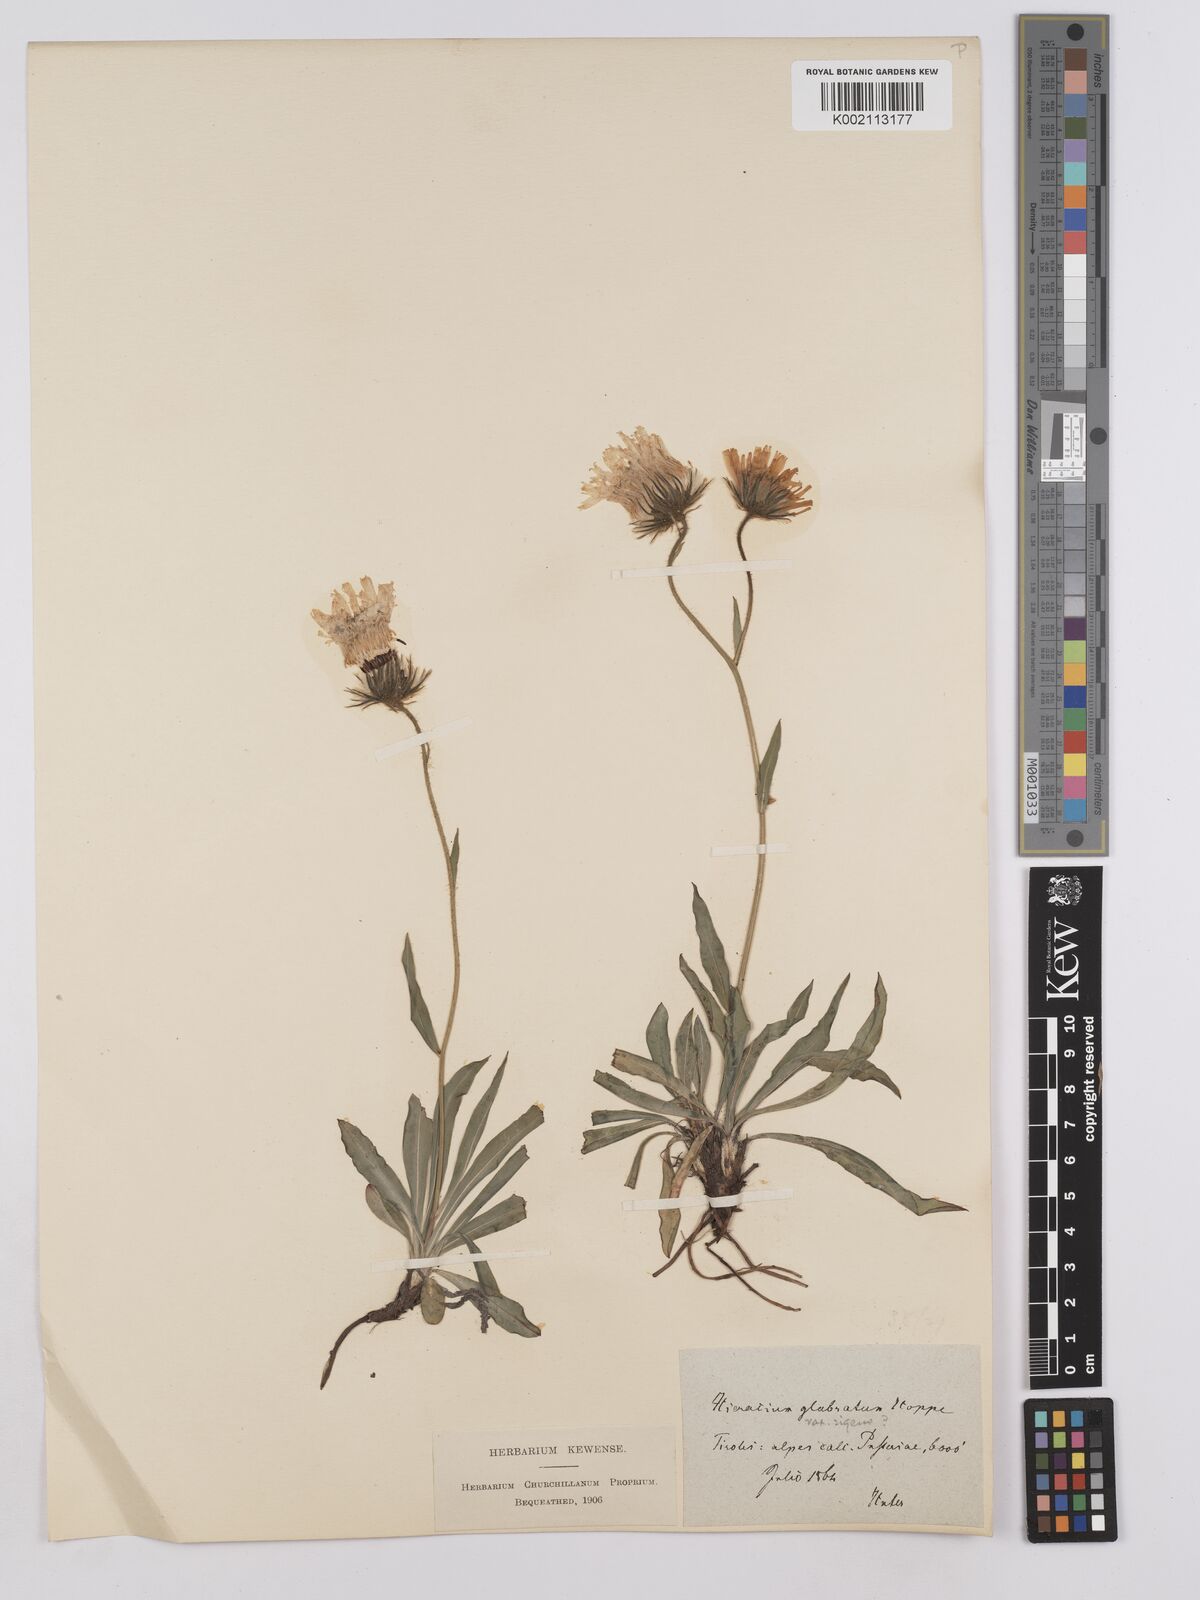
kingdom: Plantae
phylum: Tracheophyta
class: Magnoliopsida
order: Asterales
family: Asteraceae
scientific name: Asteraceae
